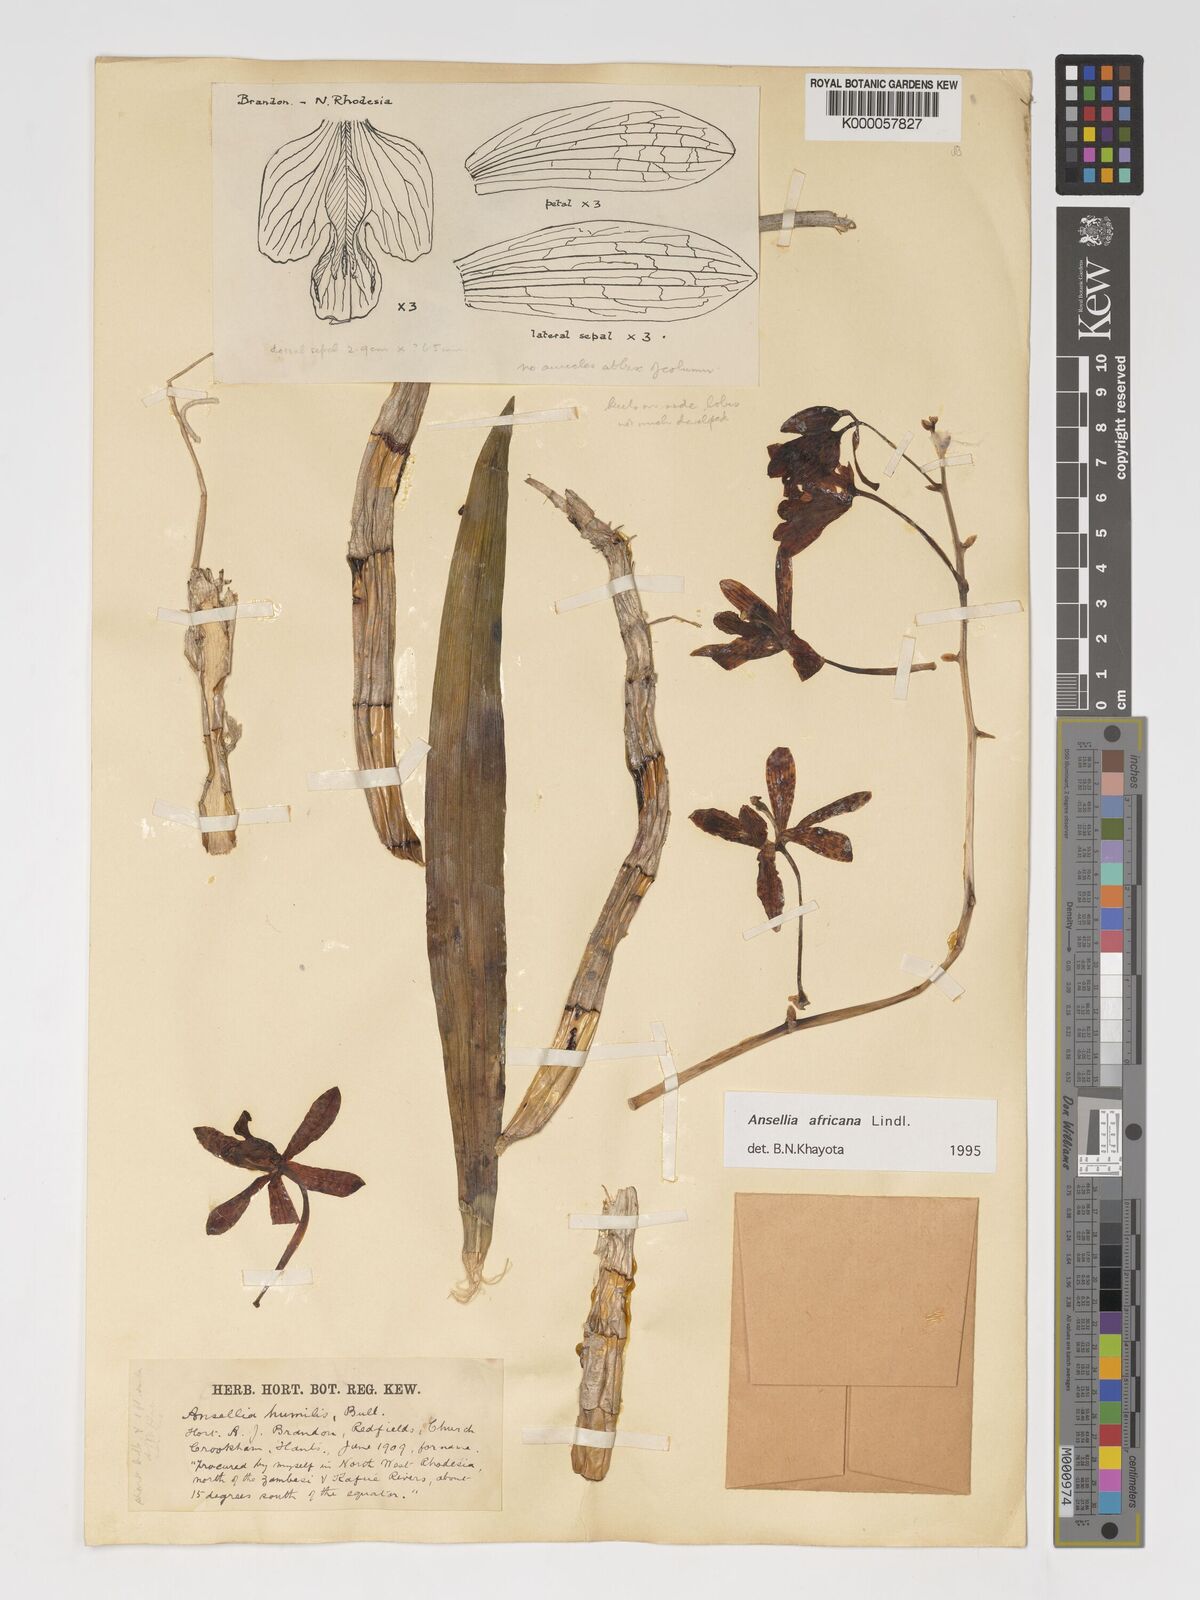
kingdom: Plantae
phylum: Tracheophyta
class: Liliopsida
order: Asparagales
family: Orchidaceae
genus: Ansellia
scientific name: Ansellia africana
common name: African ansellia
